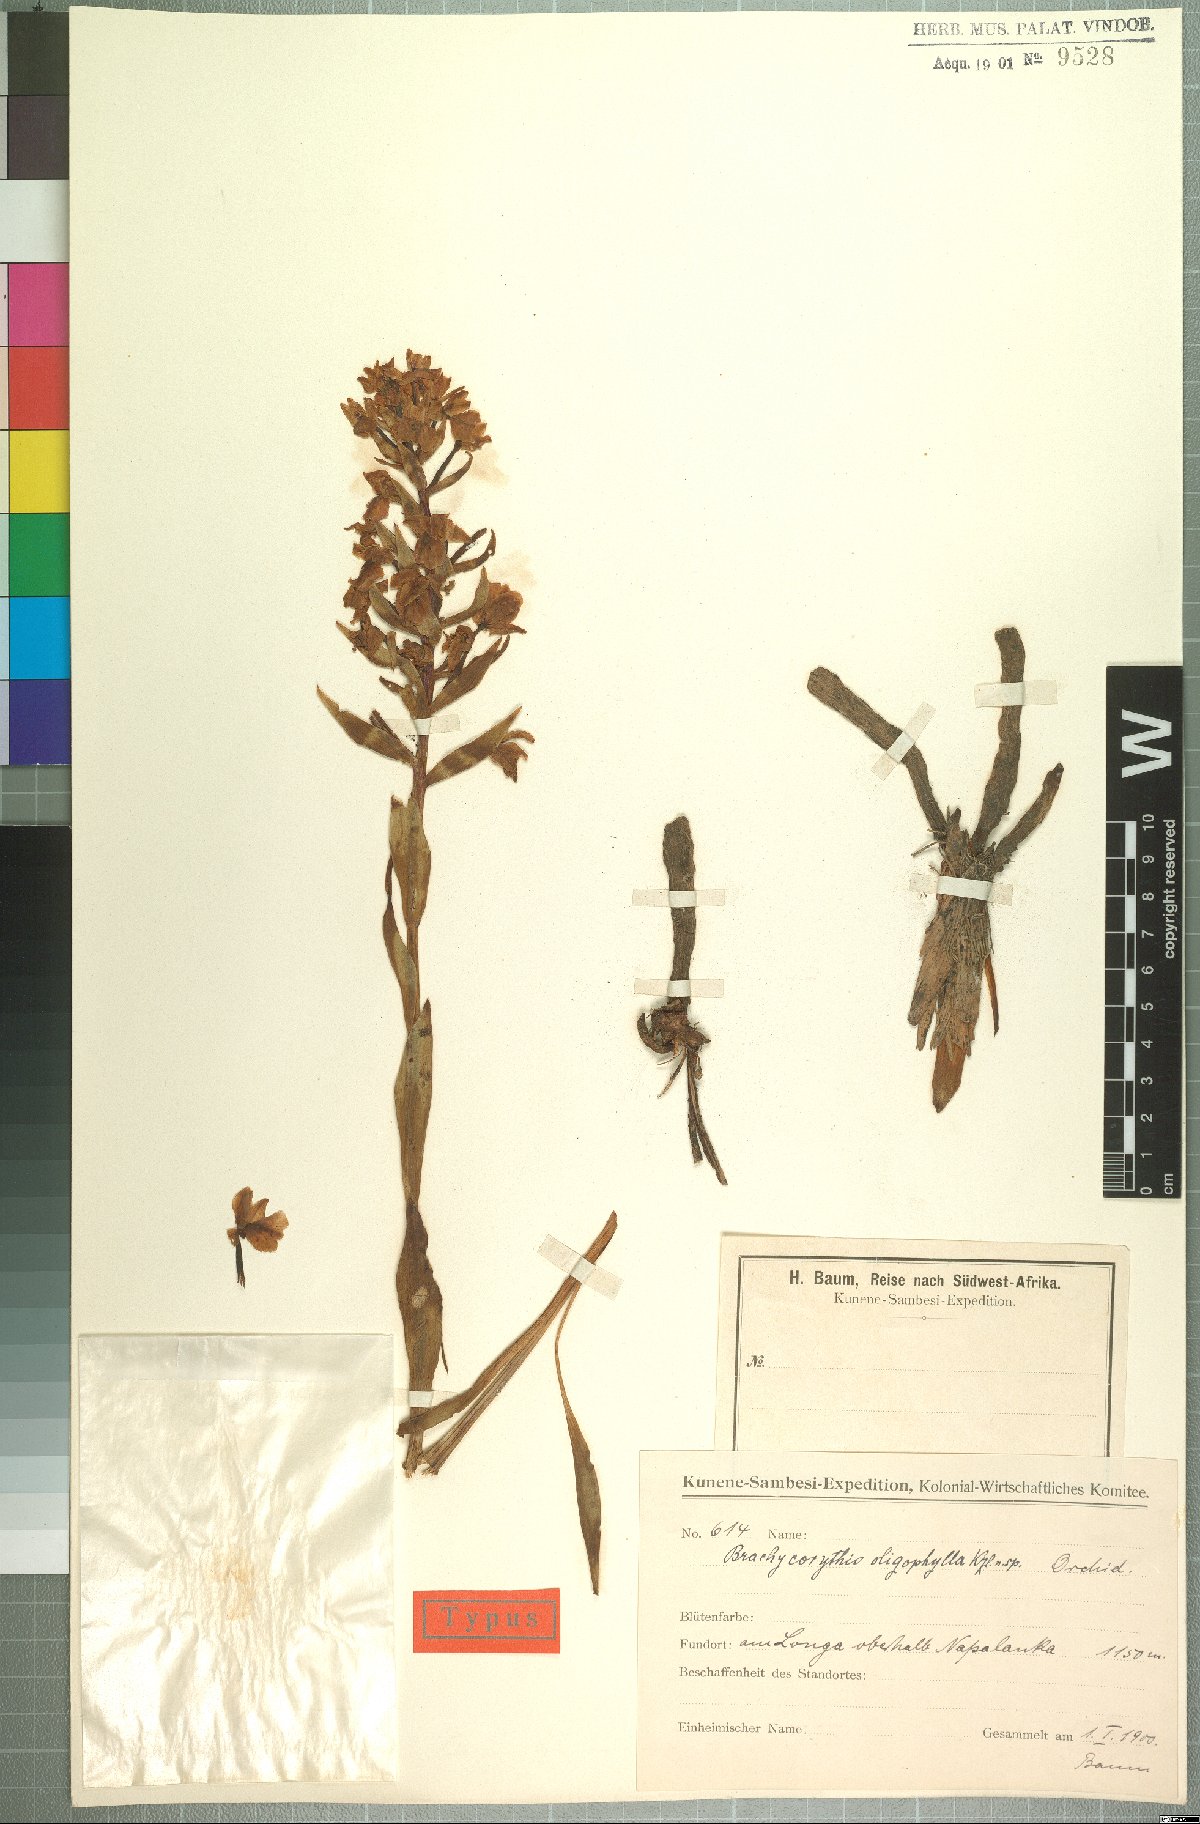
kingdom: Plantae
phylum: Tracheophyta
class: Liliopsida
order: Asparagales
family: Orchidaceae
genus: Brachycorythis
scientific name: Brachycorythis angolensis
